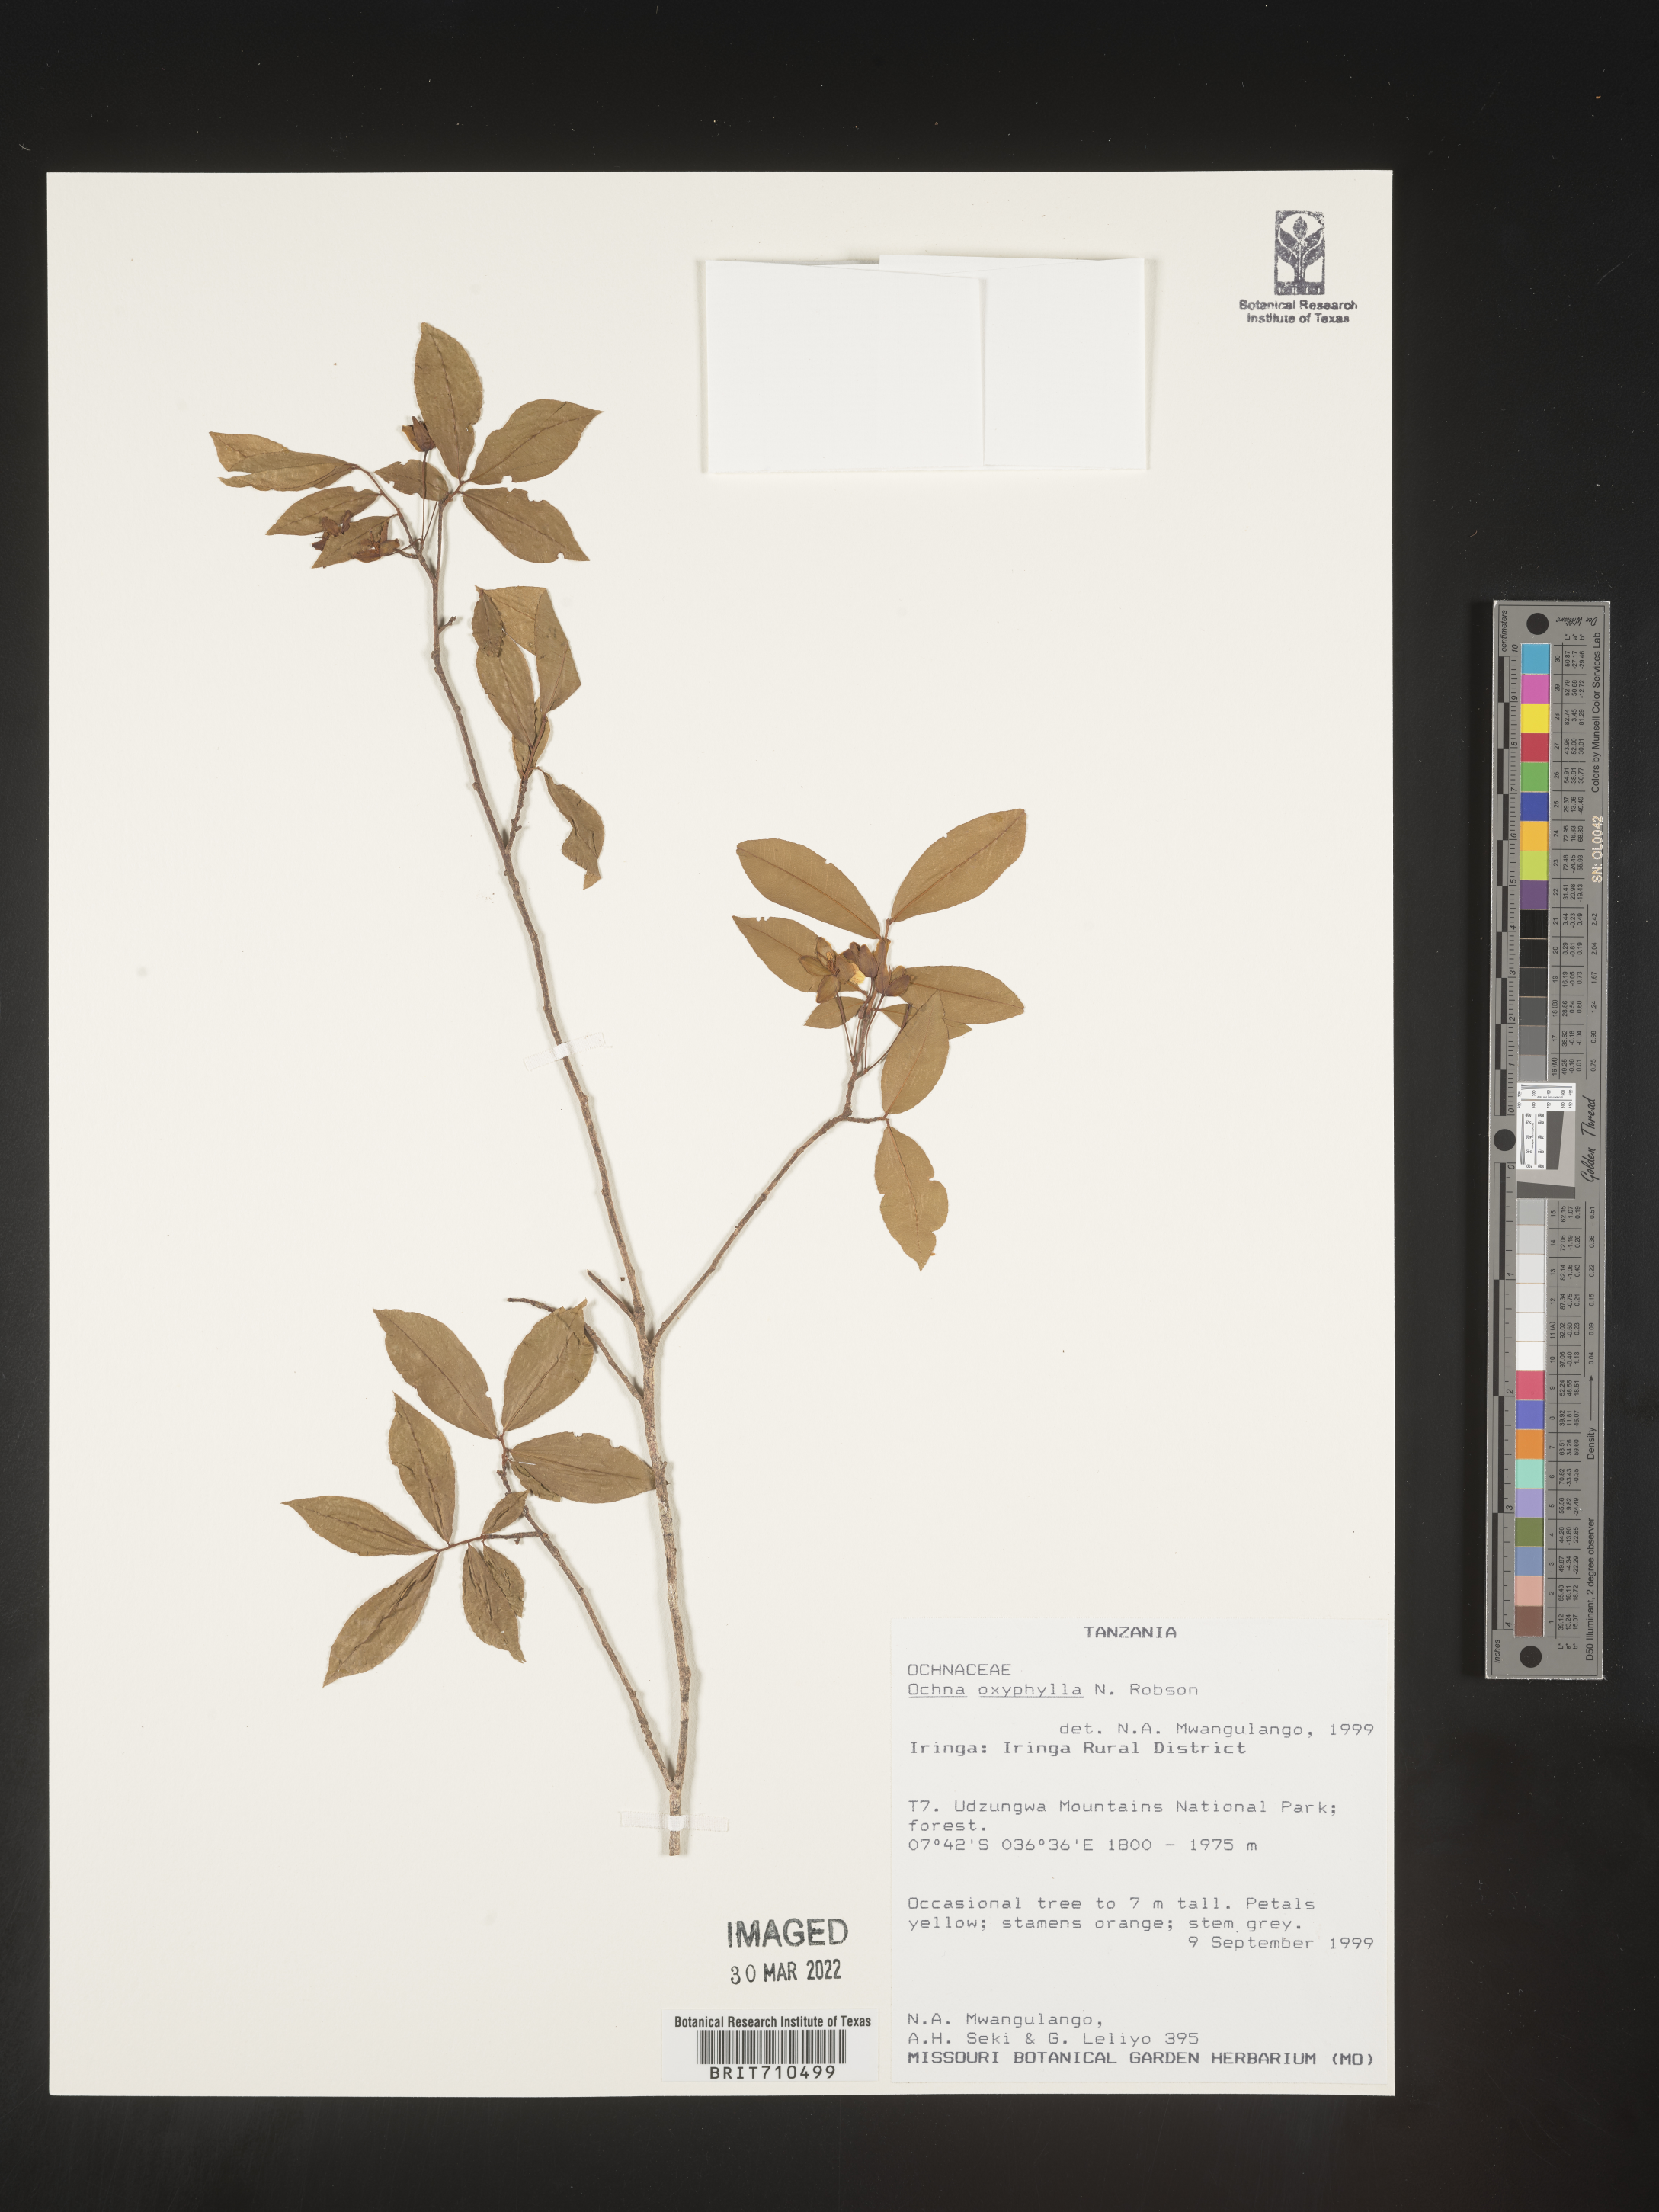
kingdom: Plantae
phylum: Tracheophyta
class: Magnoliopsida
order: Malpighiales
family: Ochnaceae
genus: Ochna
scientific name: Ochna
